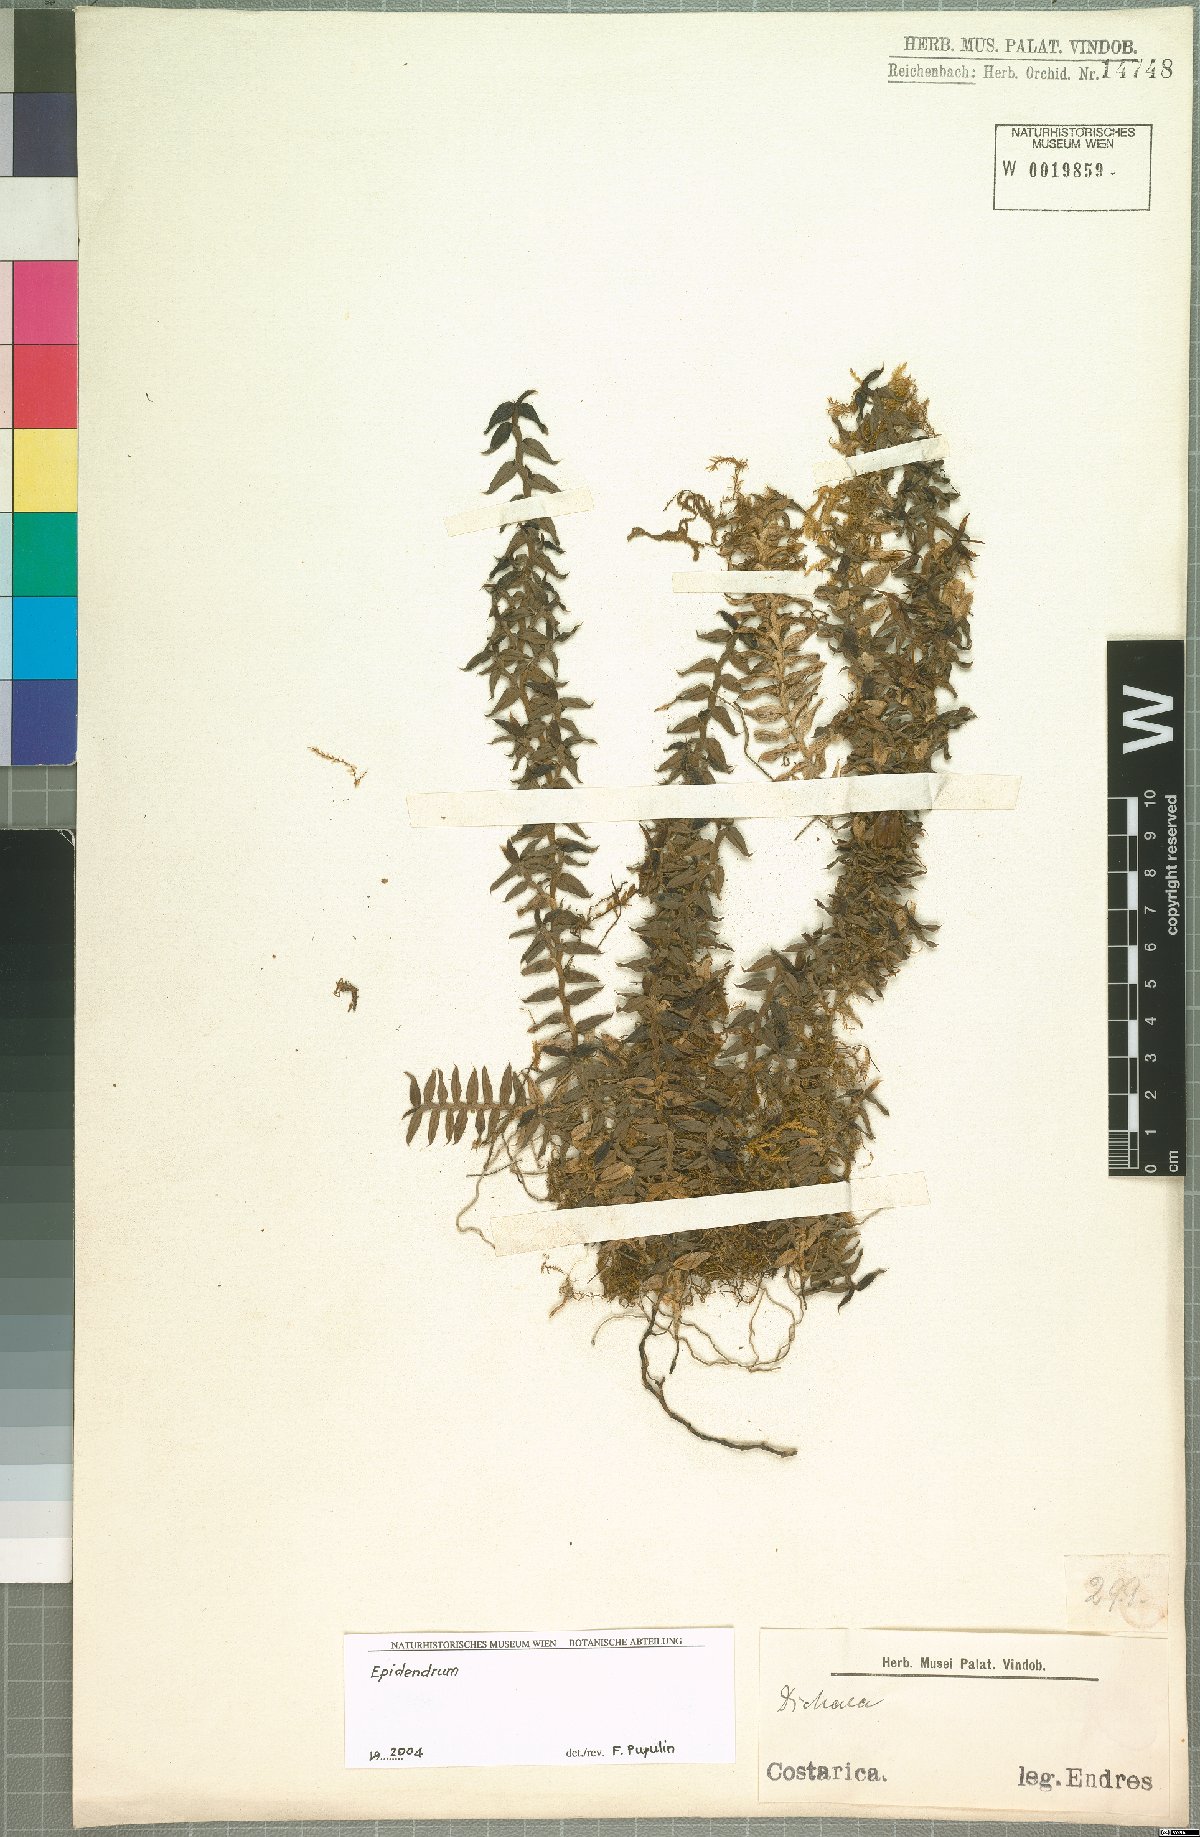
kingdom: Plantae
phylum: Tracheophyta
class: Liliopsida
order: Asparagales
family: Orchidaceae
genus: Epidendrum
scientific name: Epidendrum
